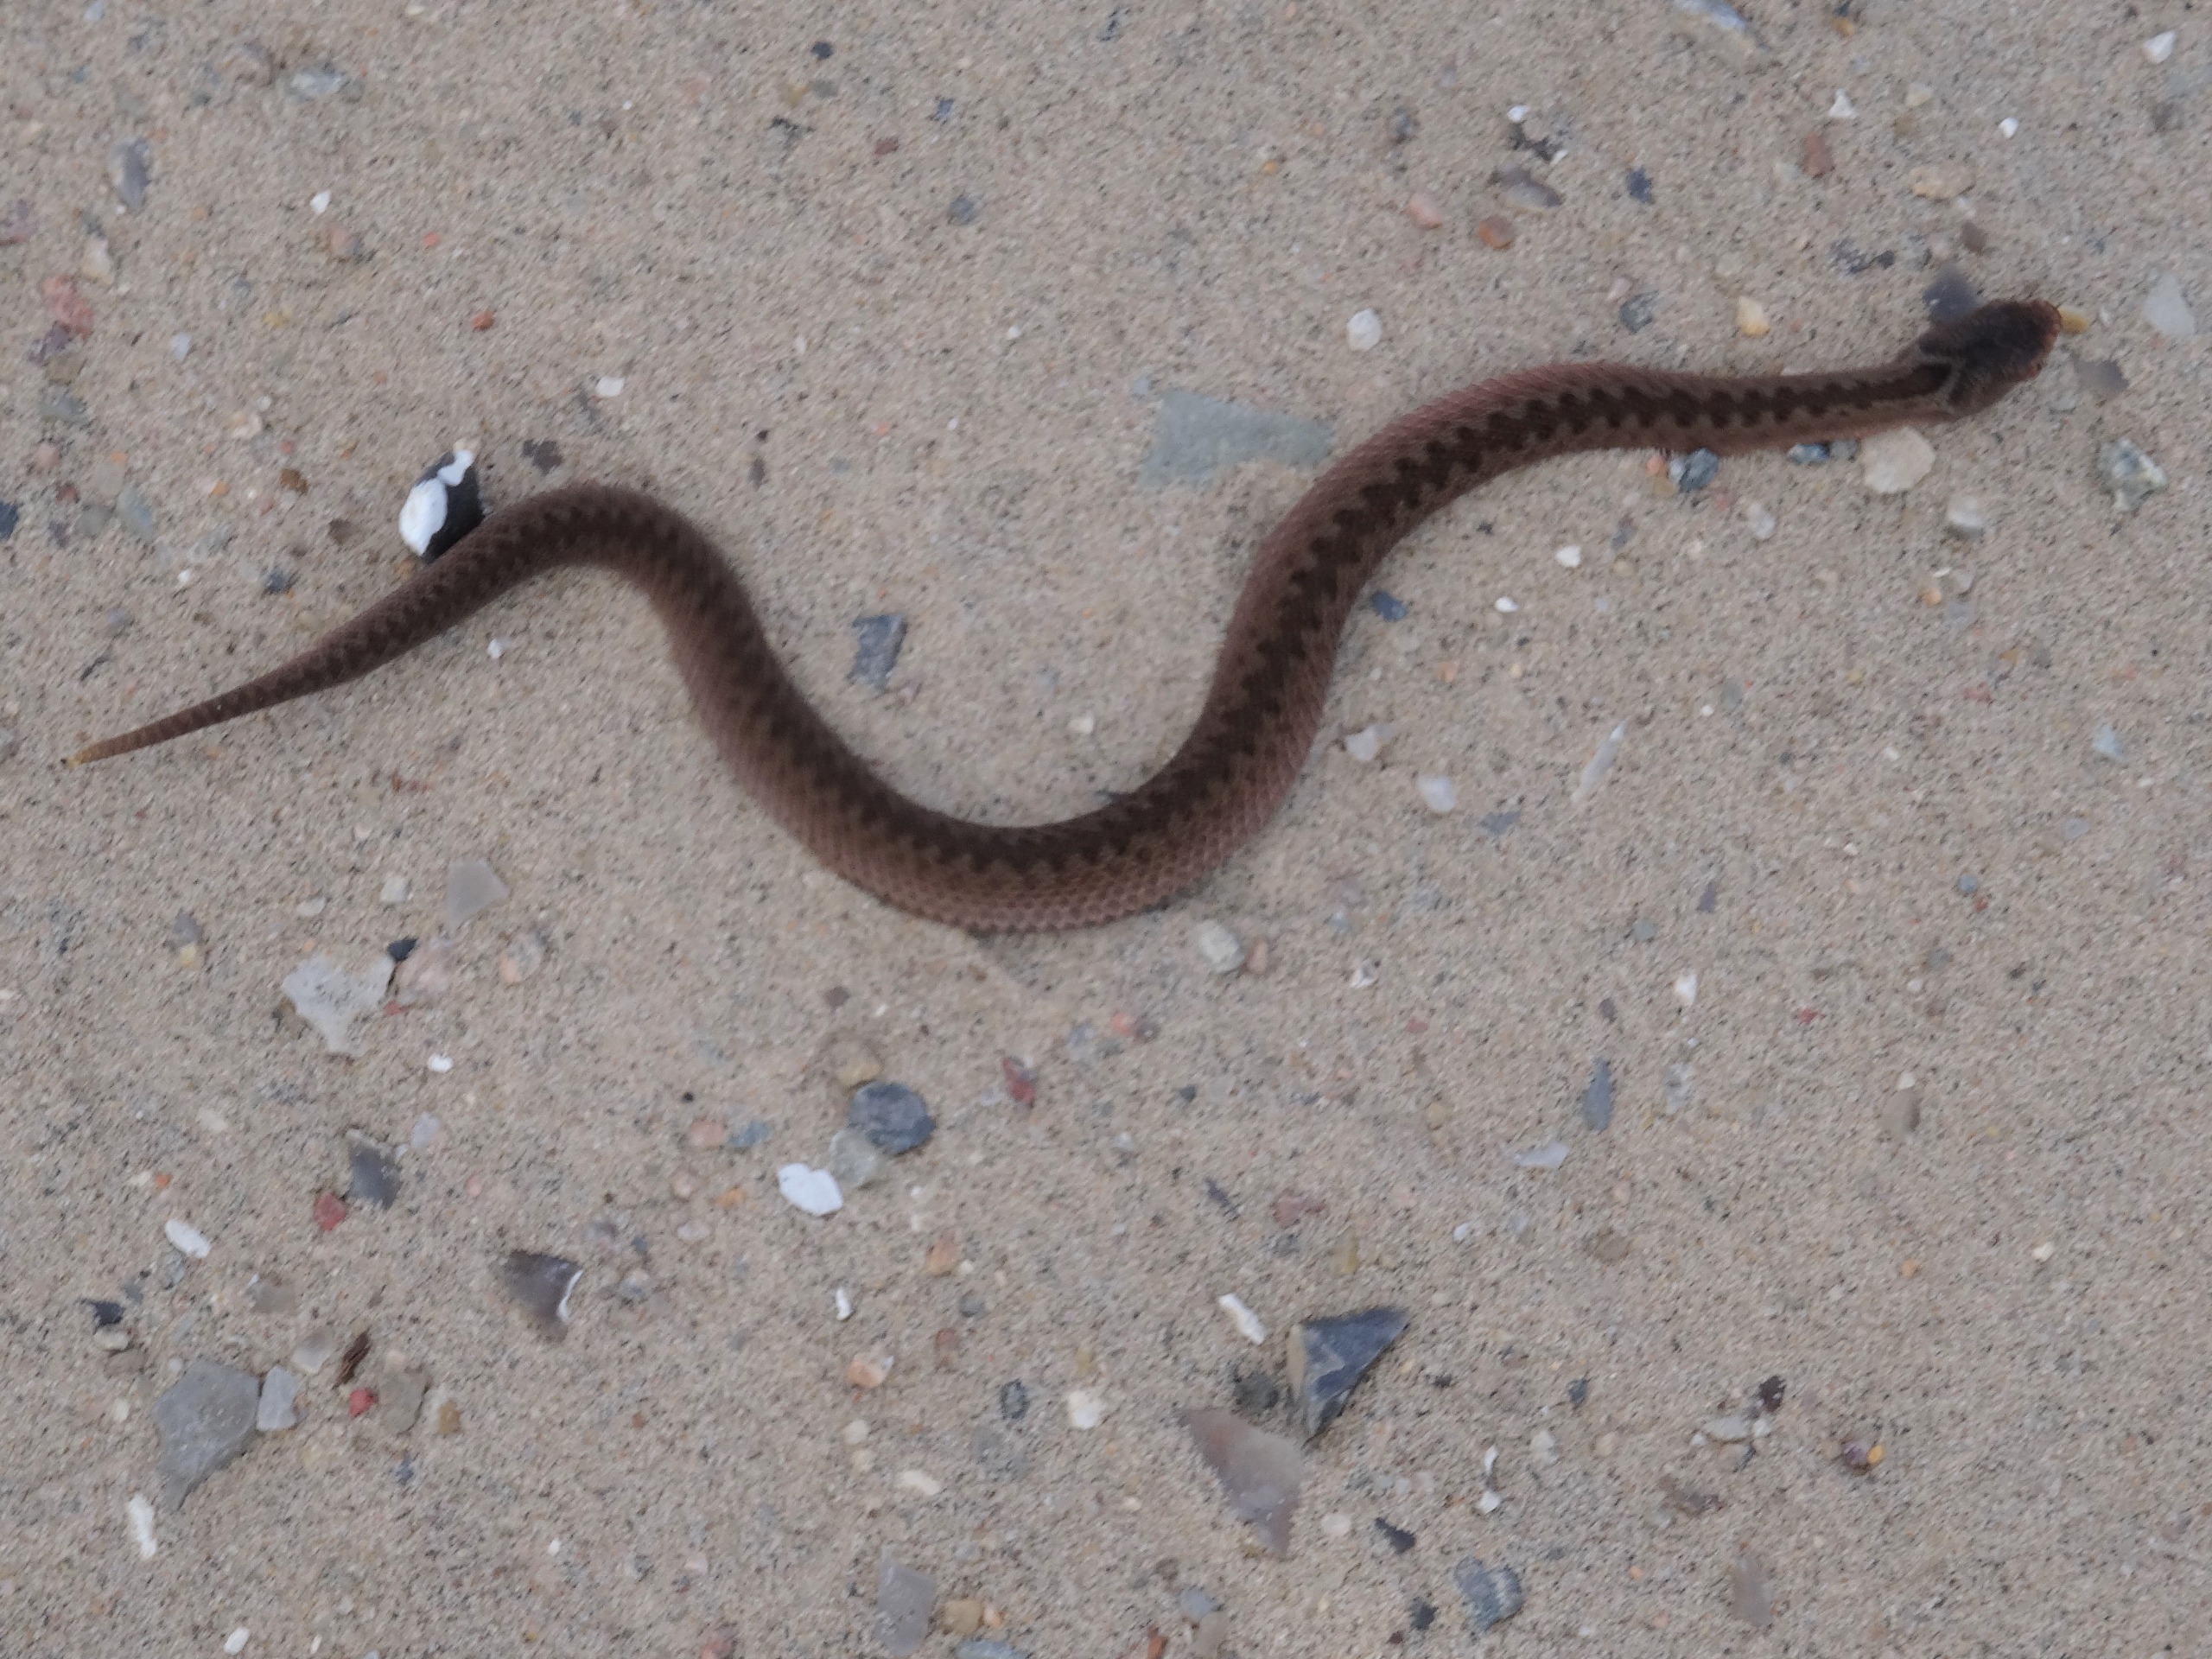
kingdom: Animalia
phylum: Chordata
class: Squamata
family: Viperidae
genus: Vipera
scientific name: Vipera berus
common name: Hugorm
